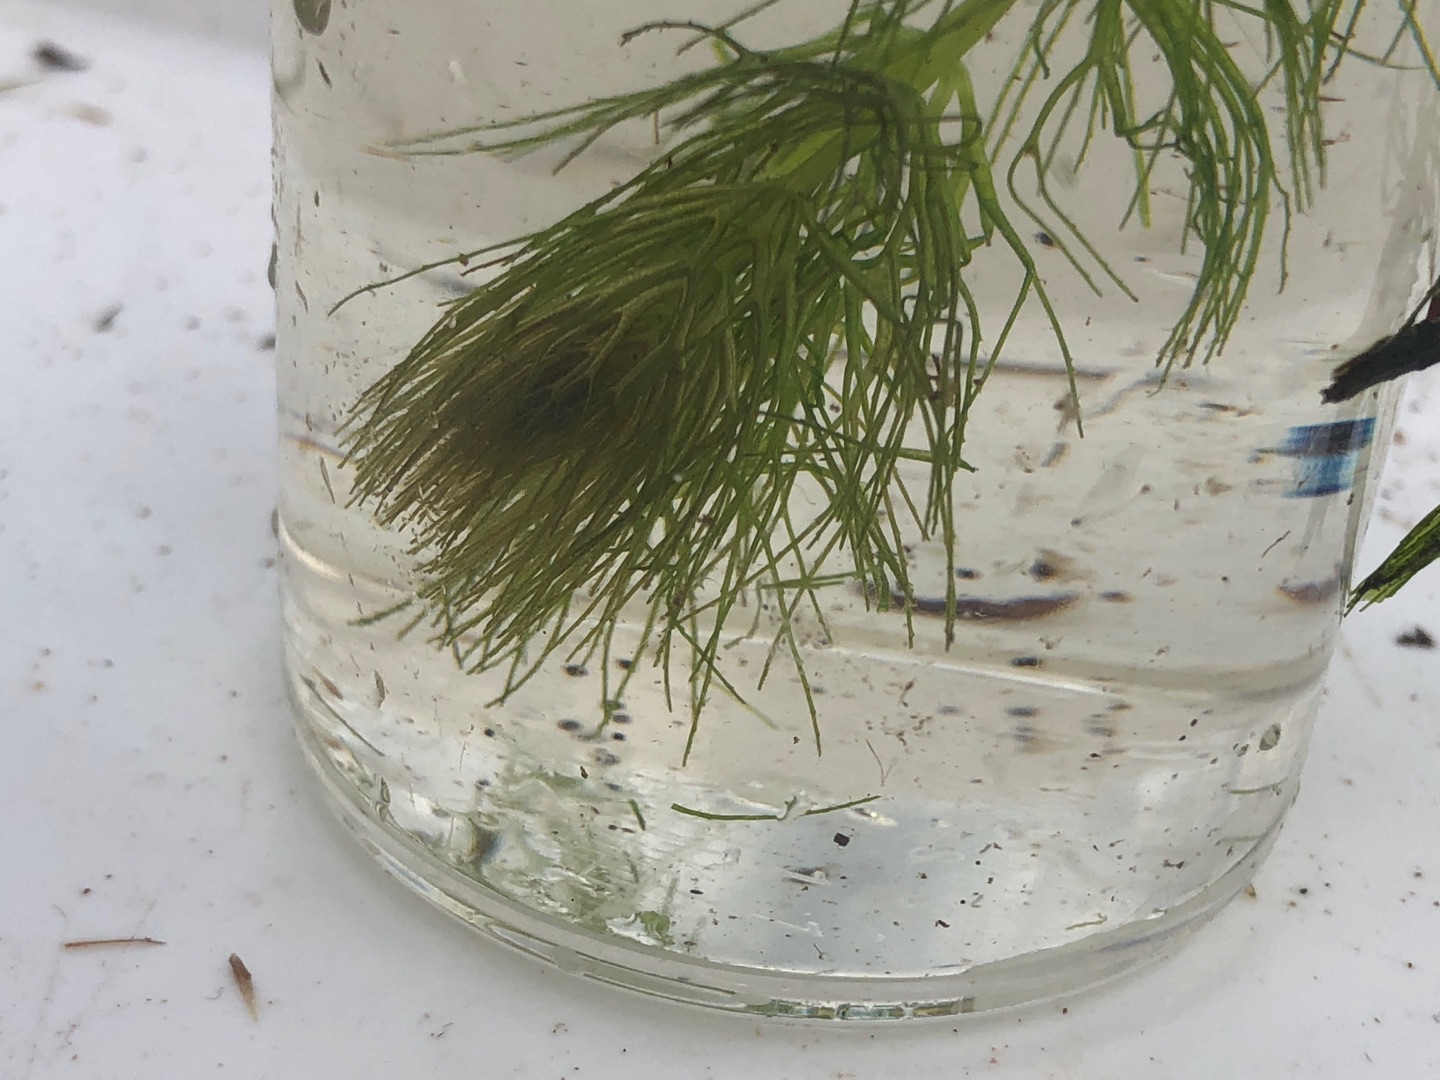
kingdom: Plantae
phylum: Tracheophyta
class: Magnoliopsida
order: Ceratophyllales
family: Ceratophyllaceae
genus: Ceratophyllum
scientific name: Ceratophyllum submersum
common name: Tornløs hornblad
